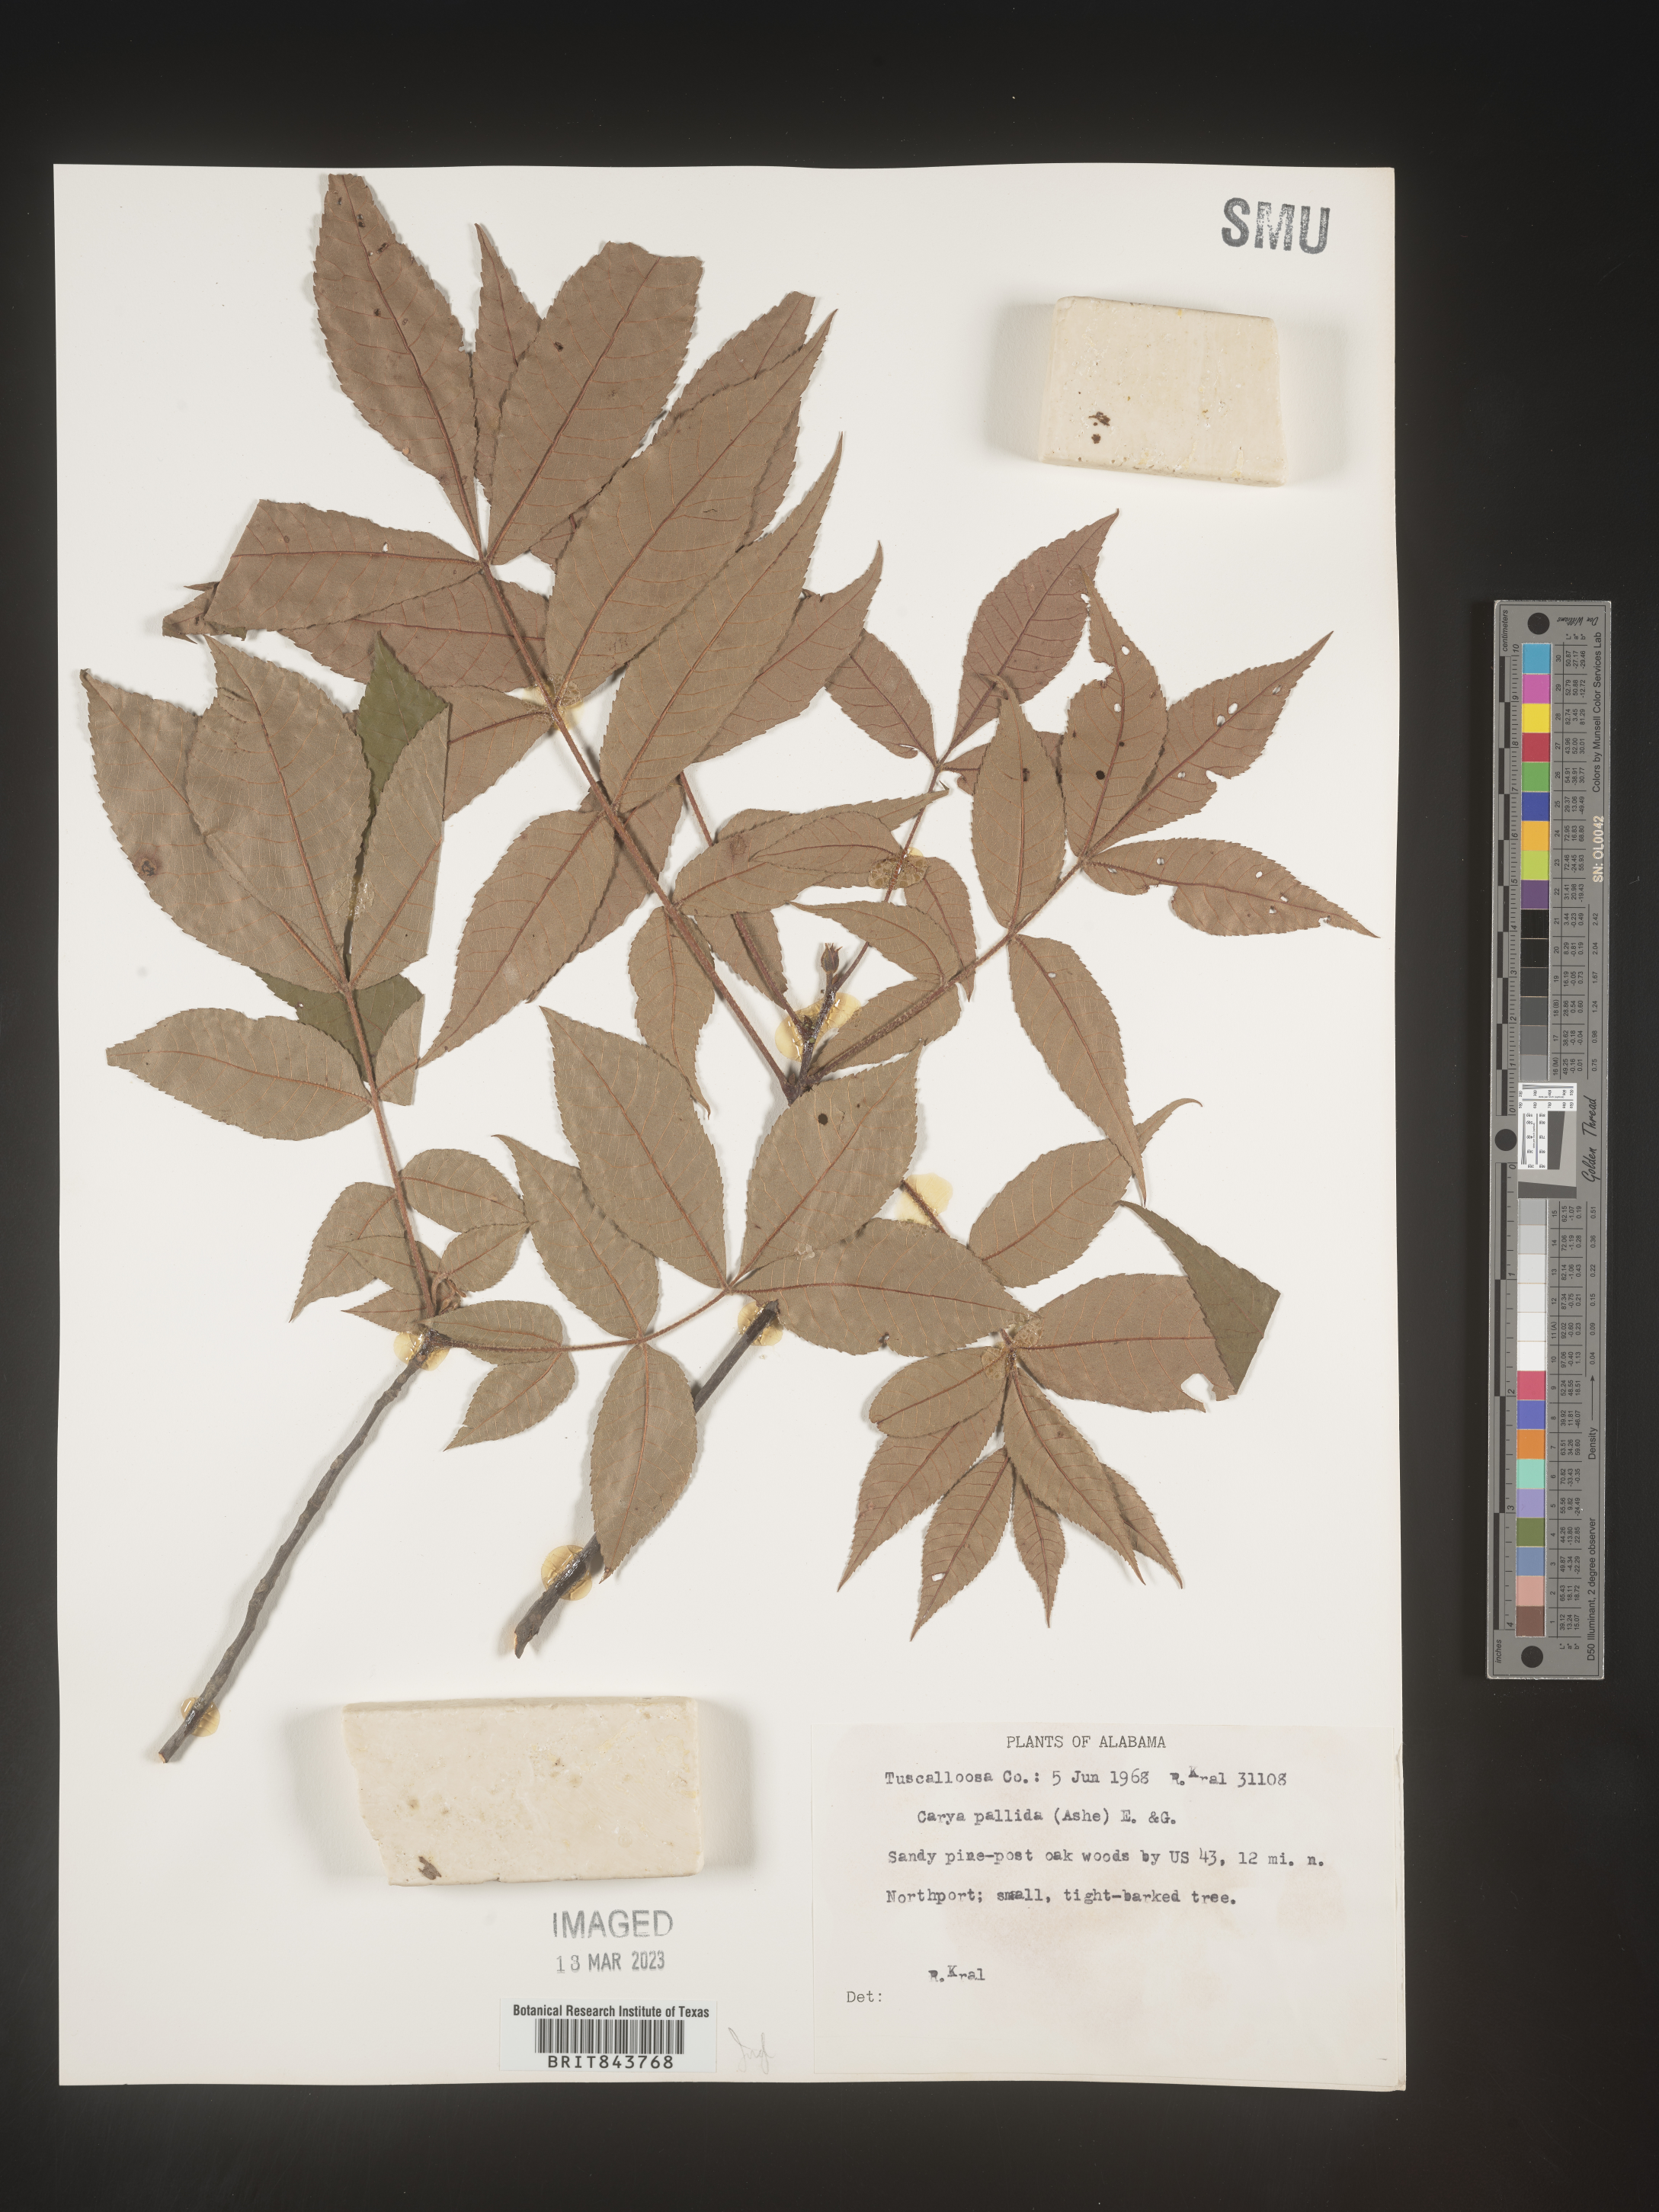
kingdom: Plantae
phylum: Tracheophyta
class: Magnoliopsida
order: Fagales
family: Juglandaceae
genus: Carya
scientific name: Carya pallida
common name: Sand hickory
